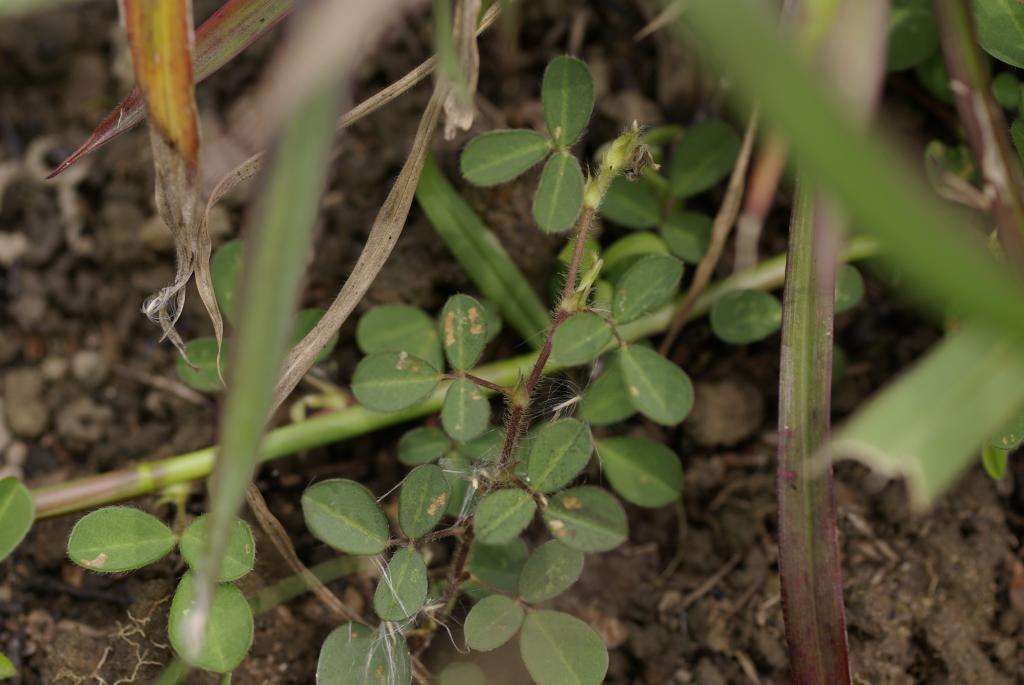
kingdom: Plantae
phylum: Tracheophyta
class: Magnoliopsida
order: Fabales
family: Fabaceae
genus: Grona
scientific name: Grona heterophylla
